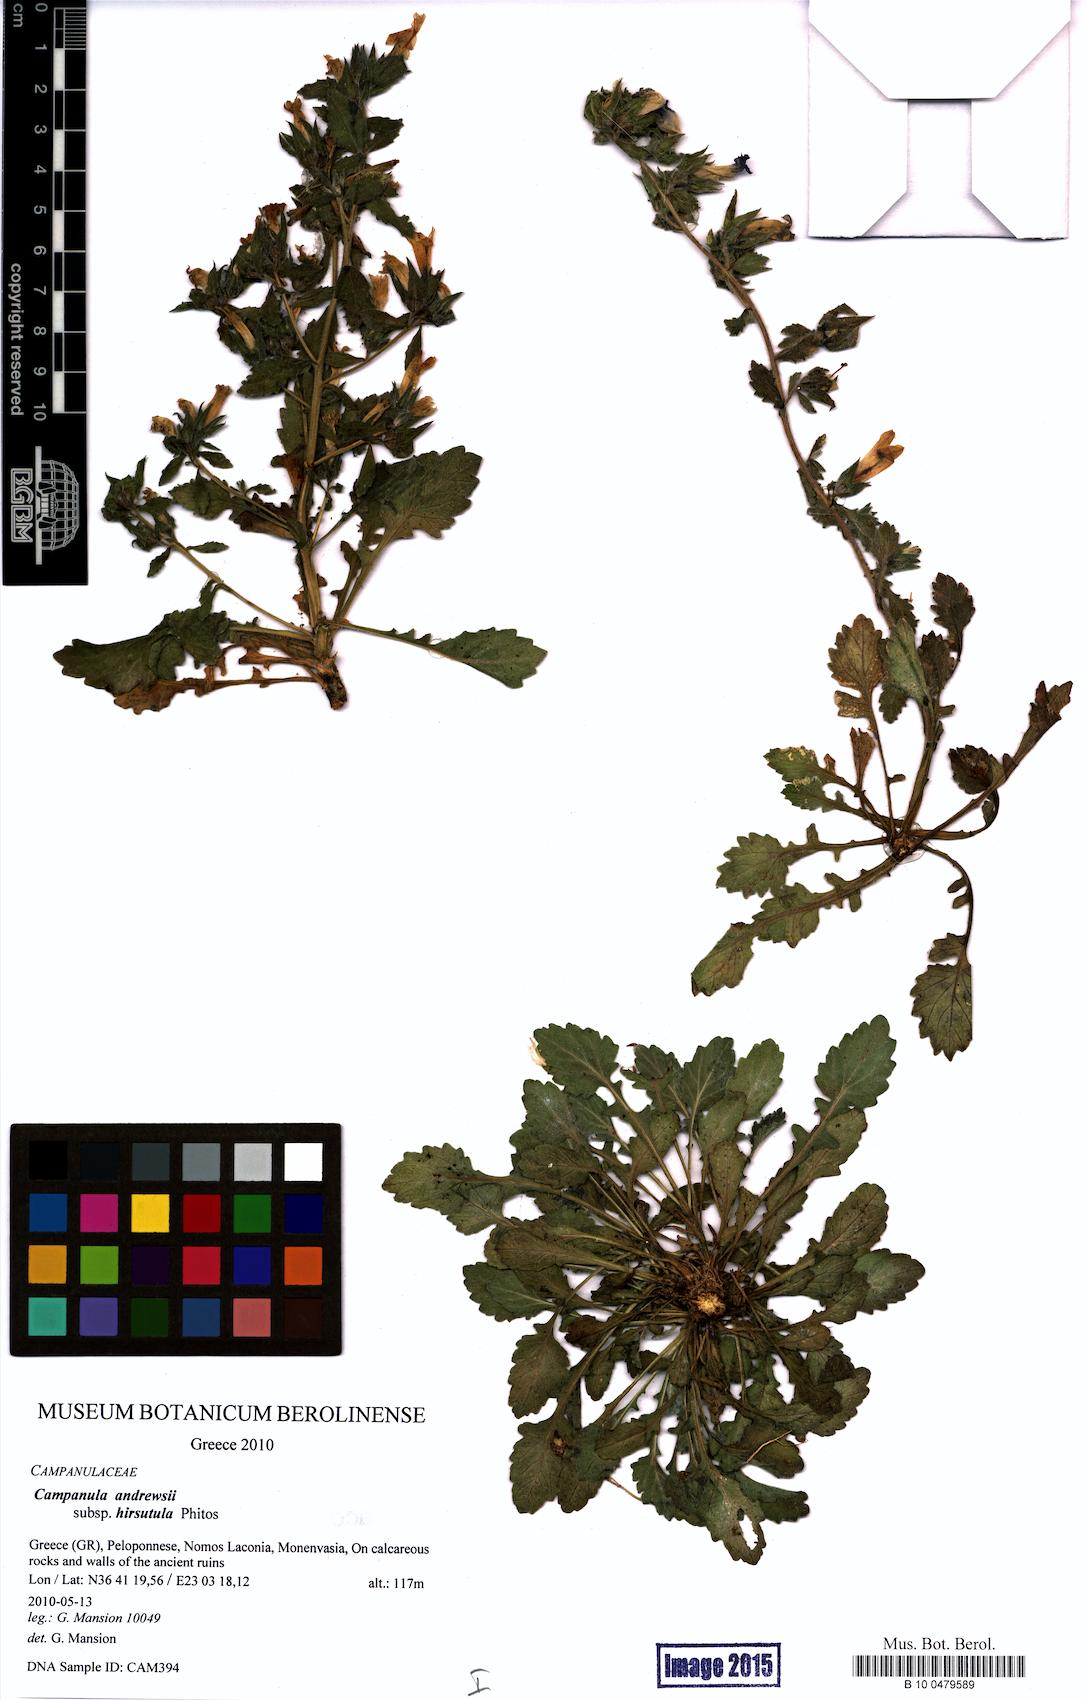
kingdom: Plantae
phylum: Tracheophyta
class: Magnoliopsida
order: Asterales
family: Campanulaceae
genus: Campanula
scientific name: Campanula andrewsii
